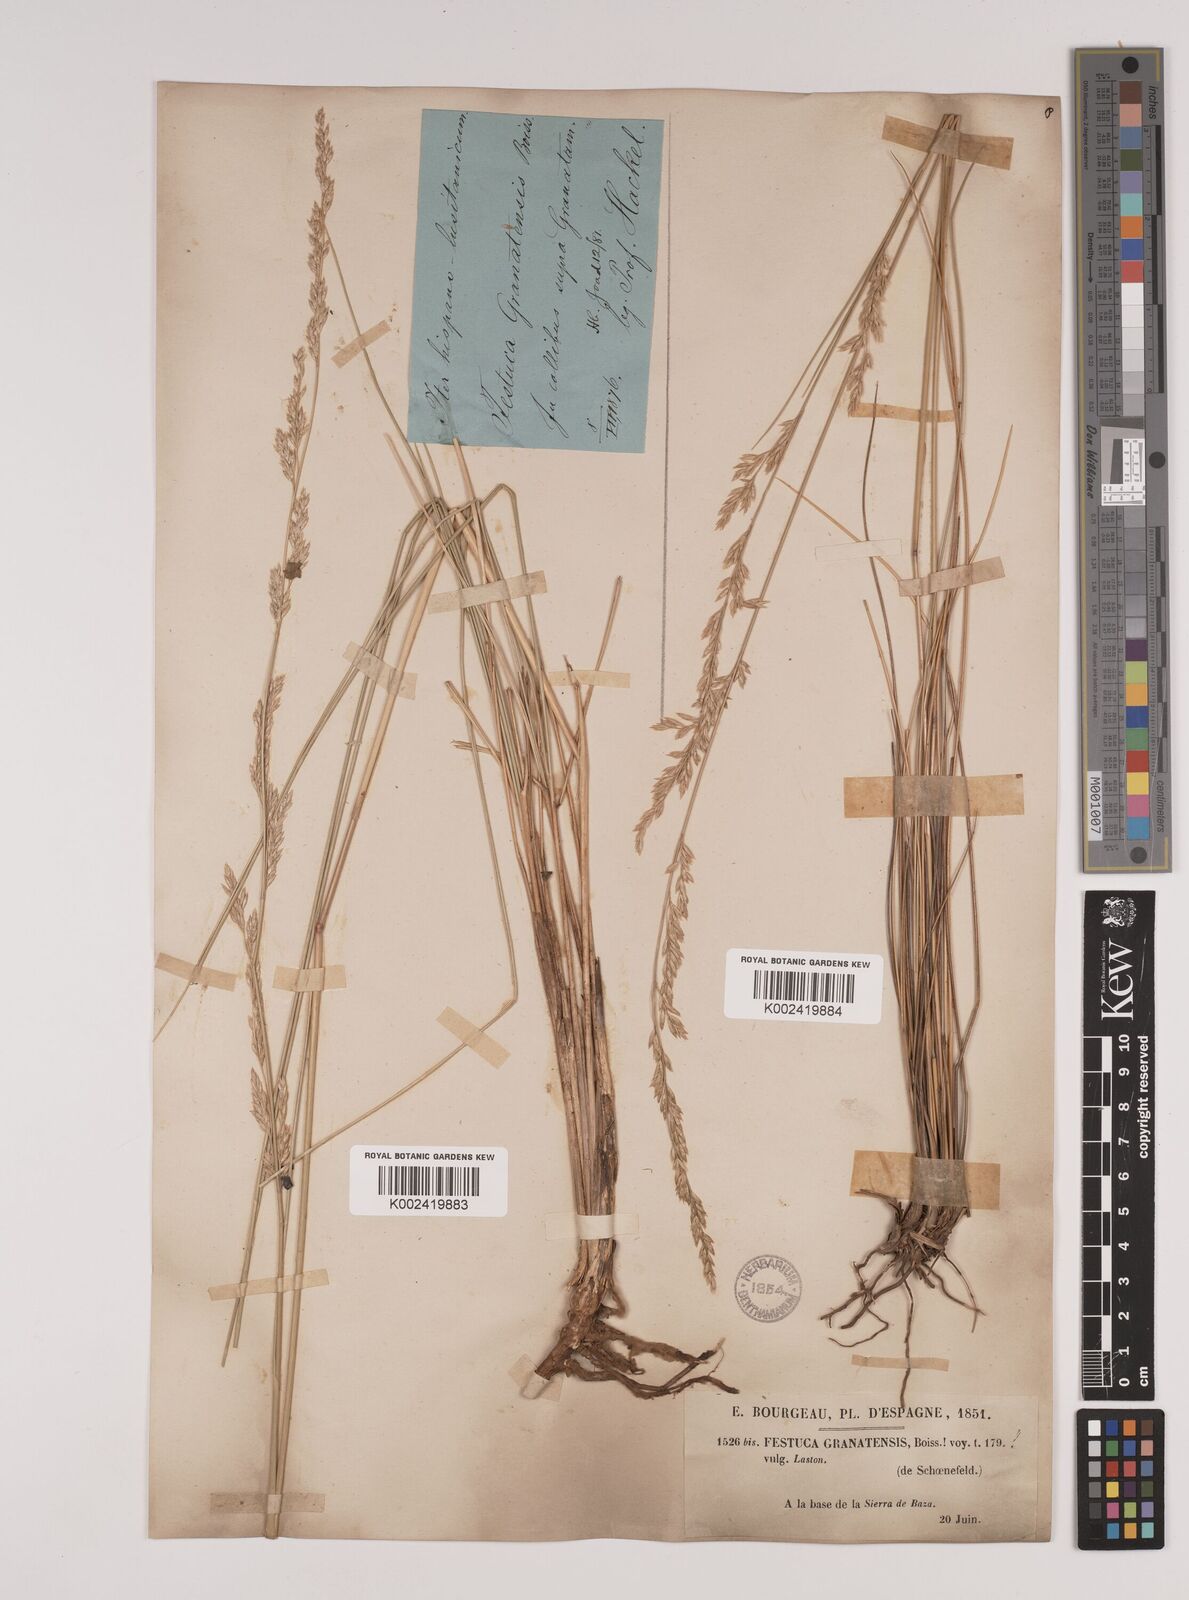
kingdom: Plantae
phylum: Tracheophyta
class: Liliopsida
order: Poales
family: Poaceae
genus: Festuca
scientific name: Festuca scariosa
